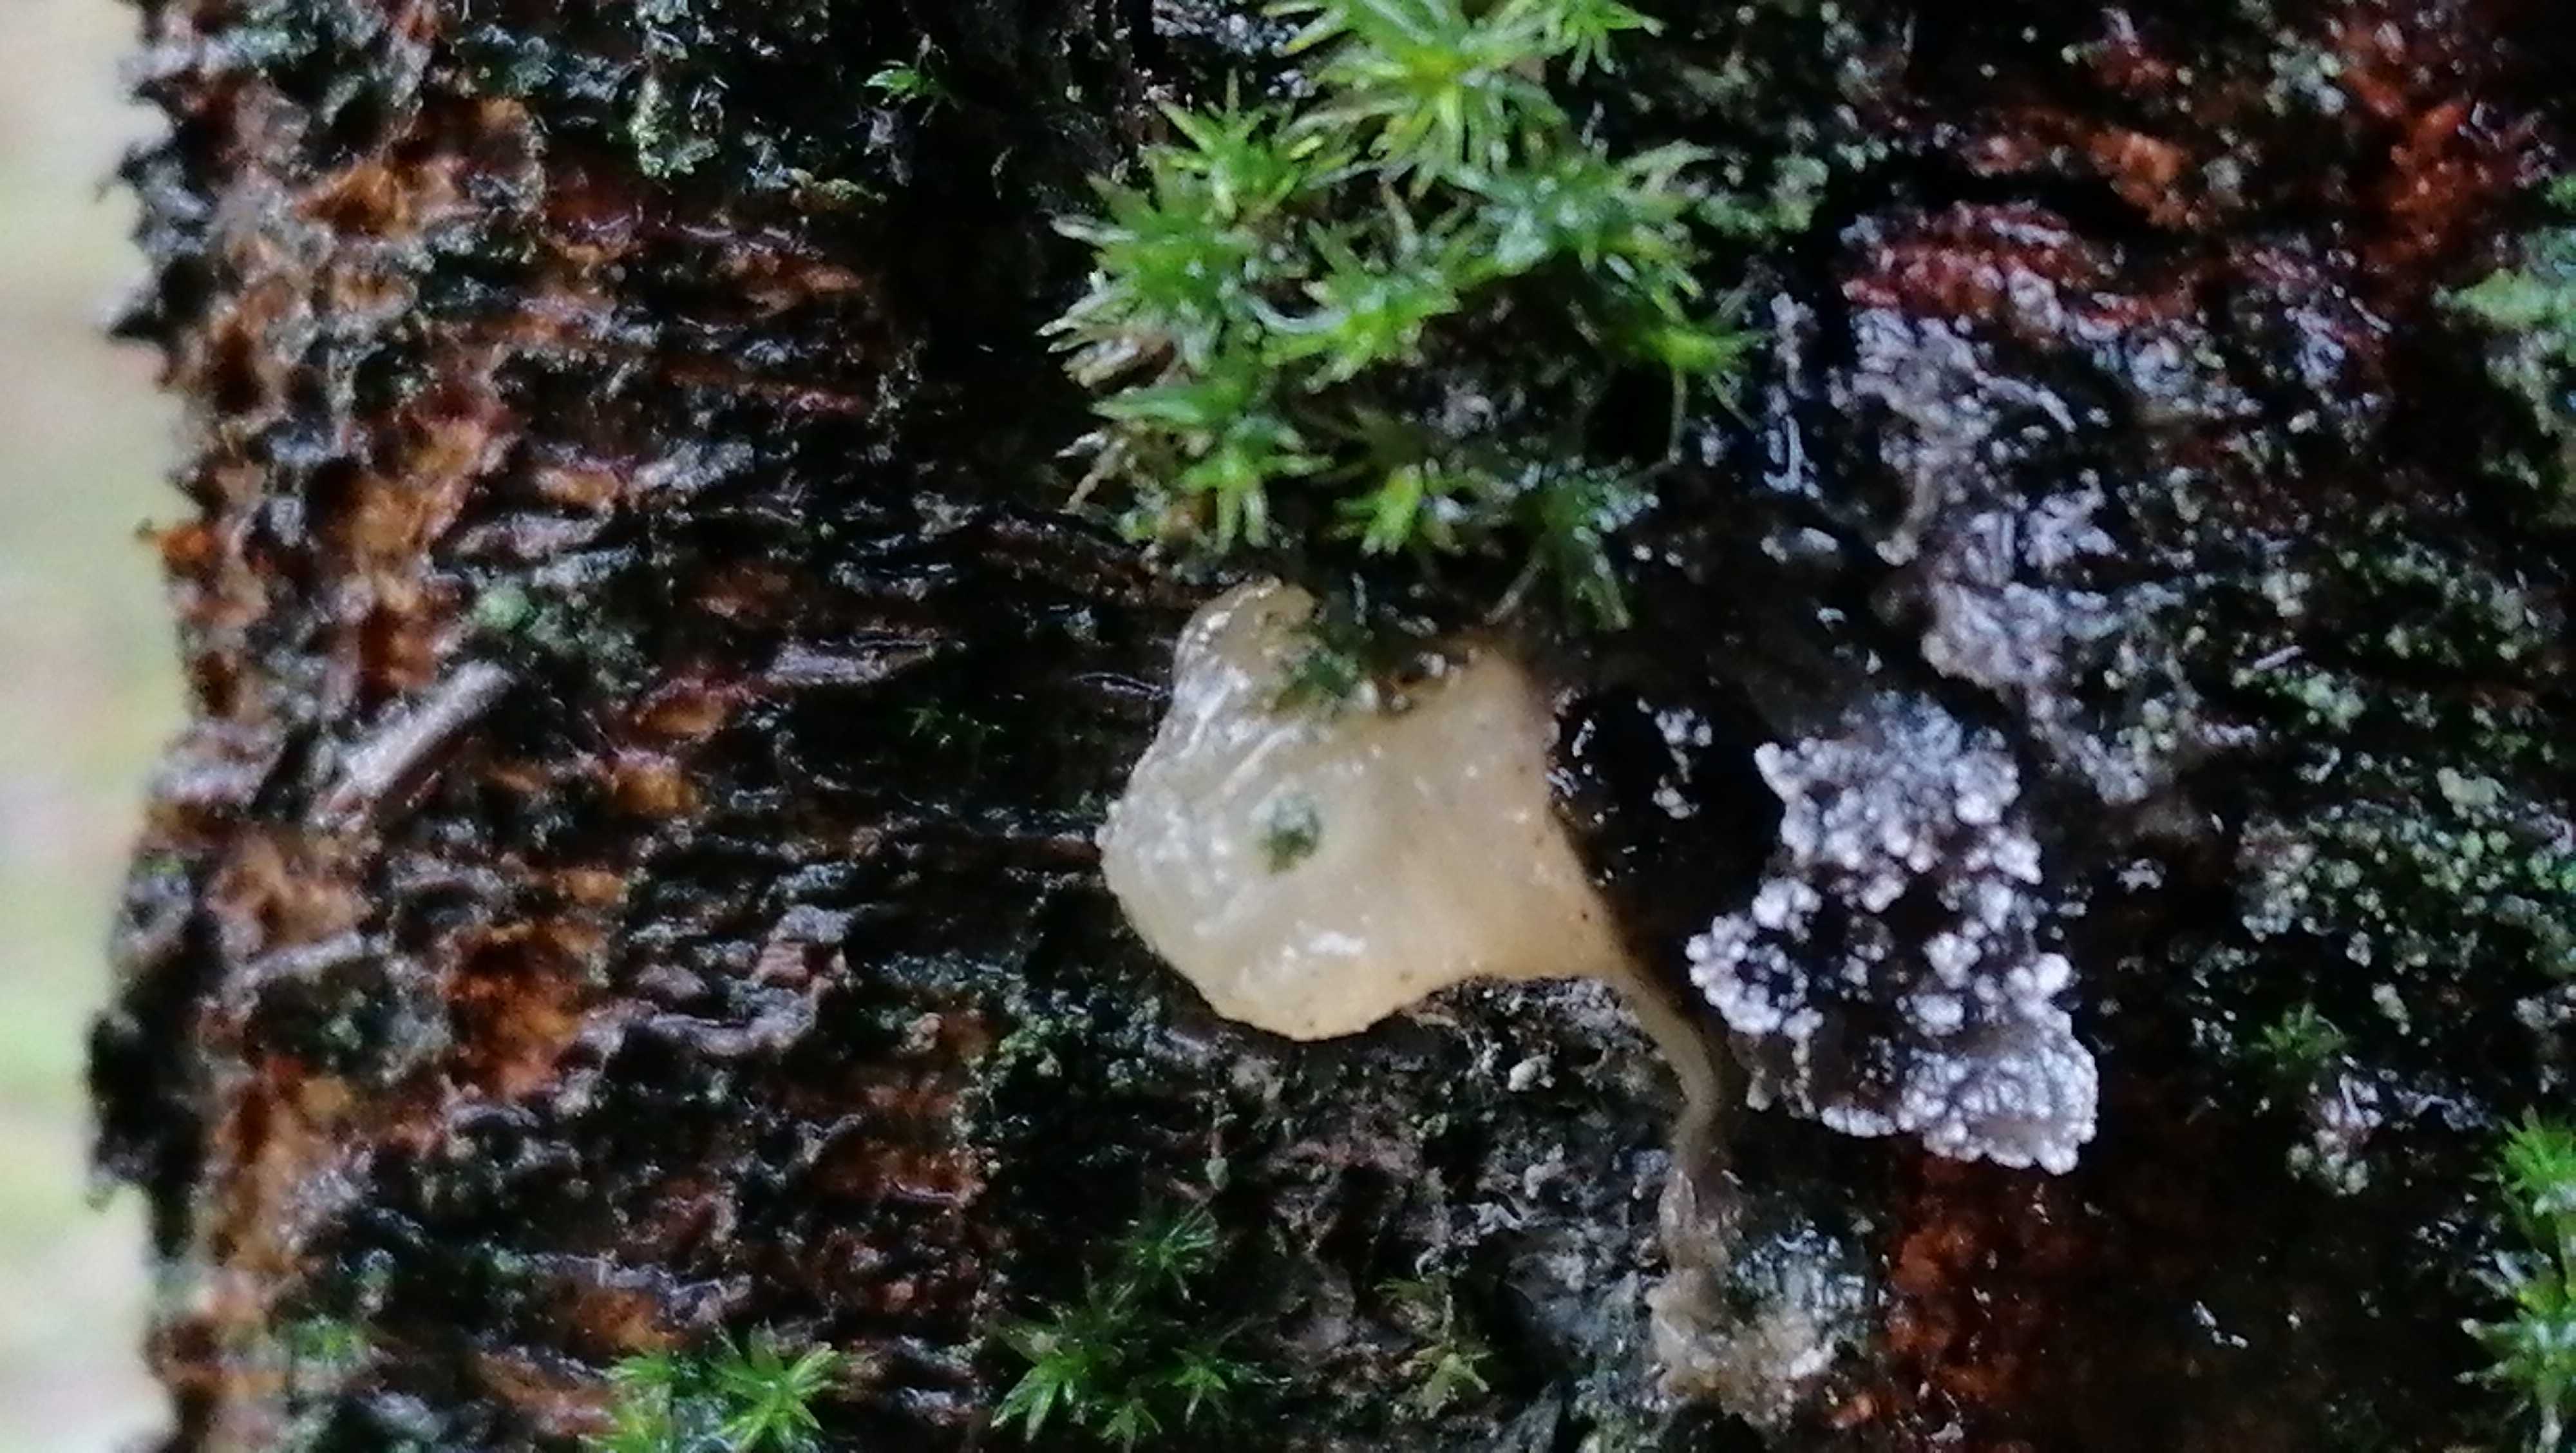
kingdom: Fungi
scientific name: Fungi
